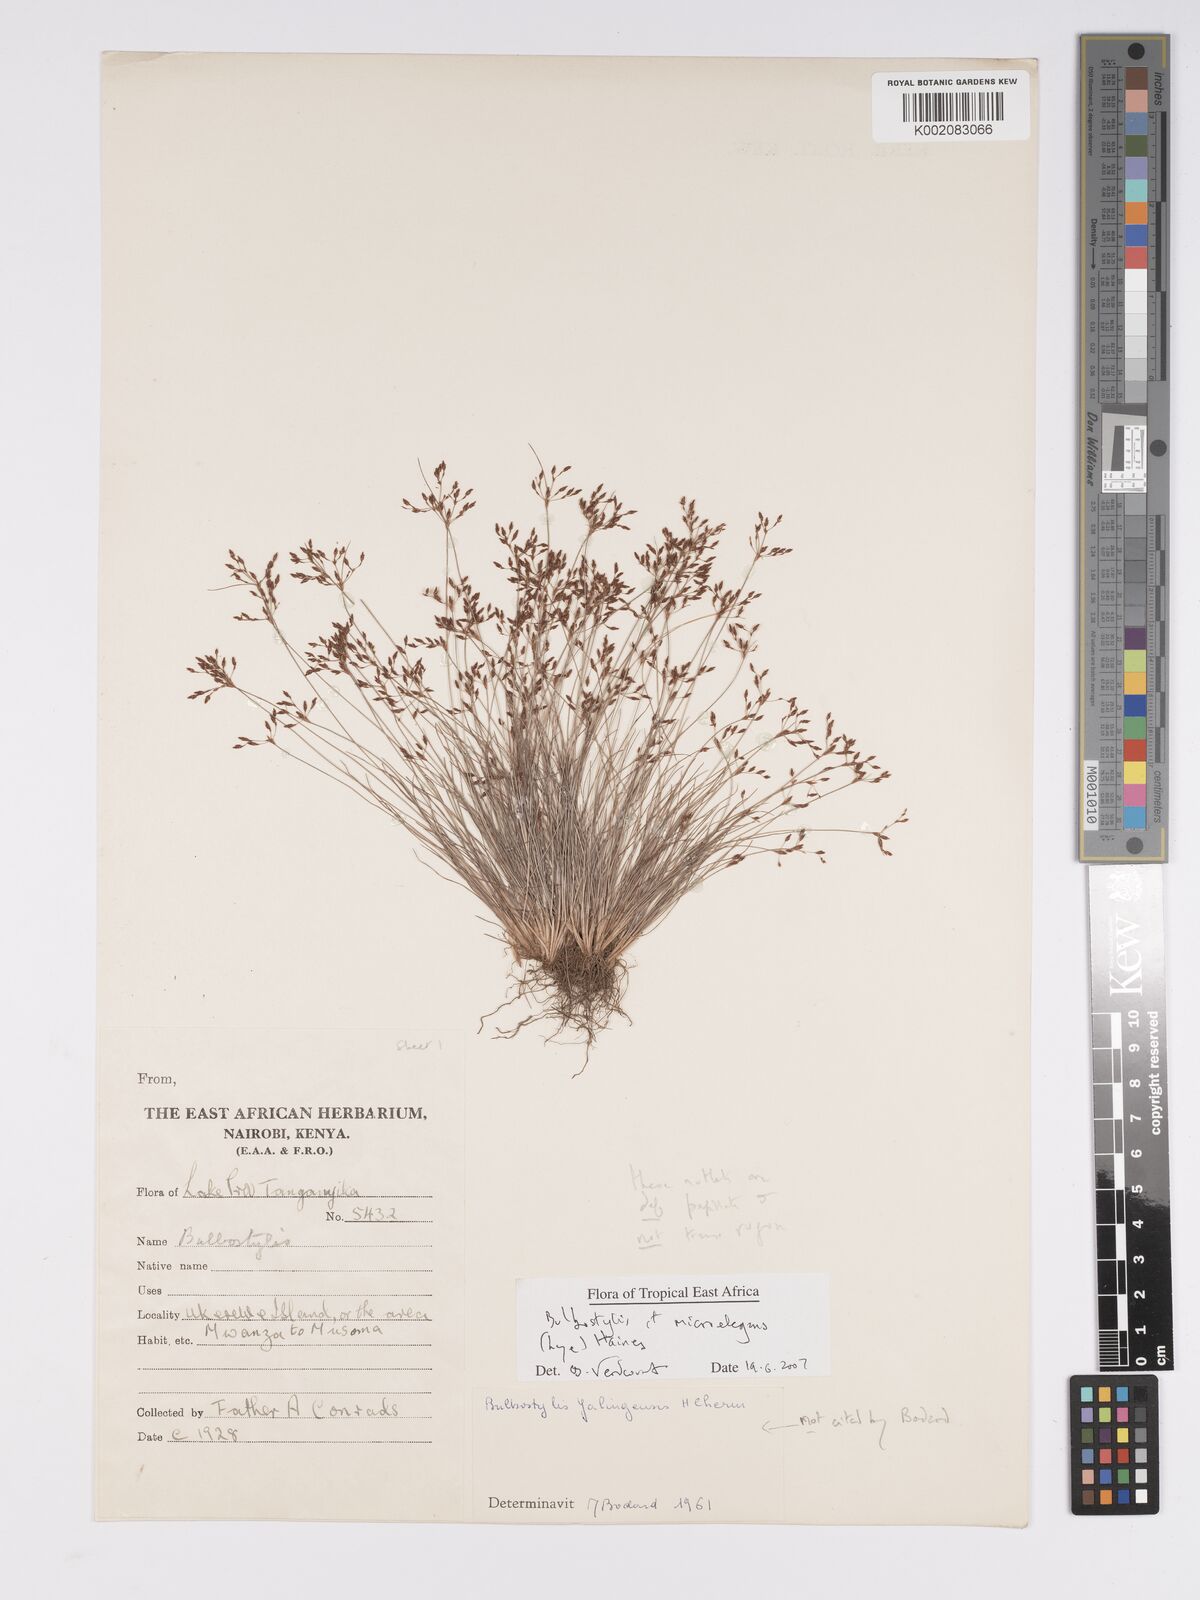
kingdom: Plantae
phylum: Tracheophyta
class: Liliopsida
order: Poales
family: Cyperaceae
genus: Bulbostylis
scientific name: Bulbostylis microelegans
